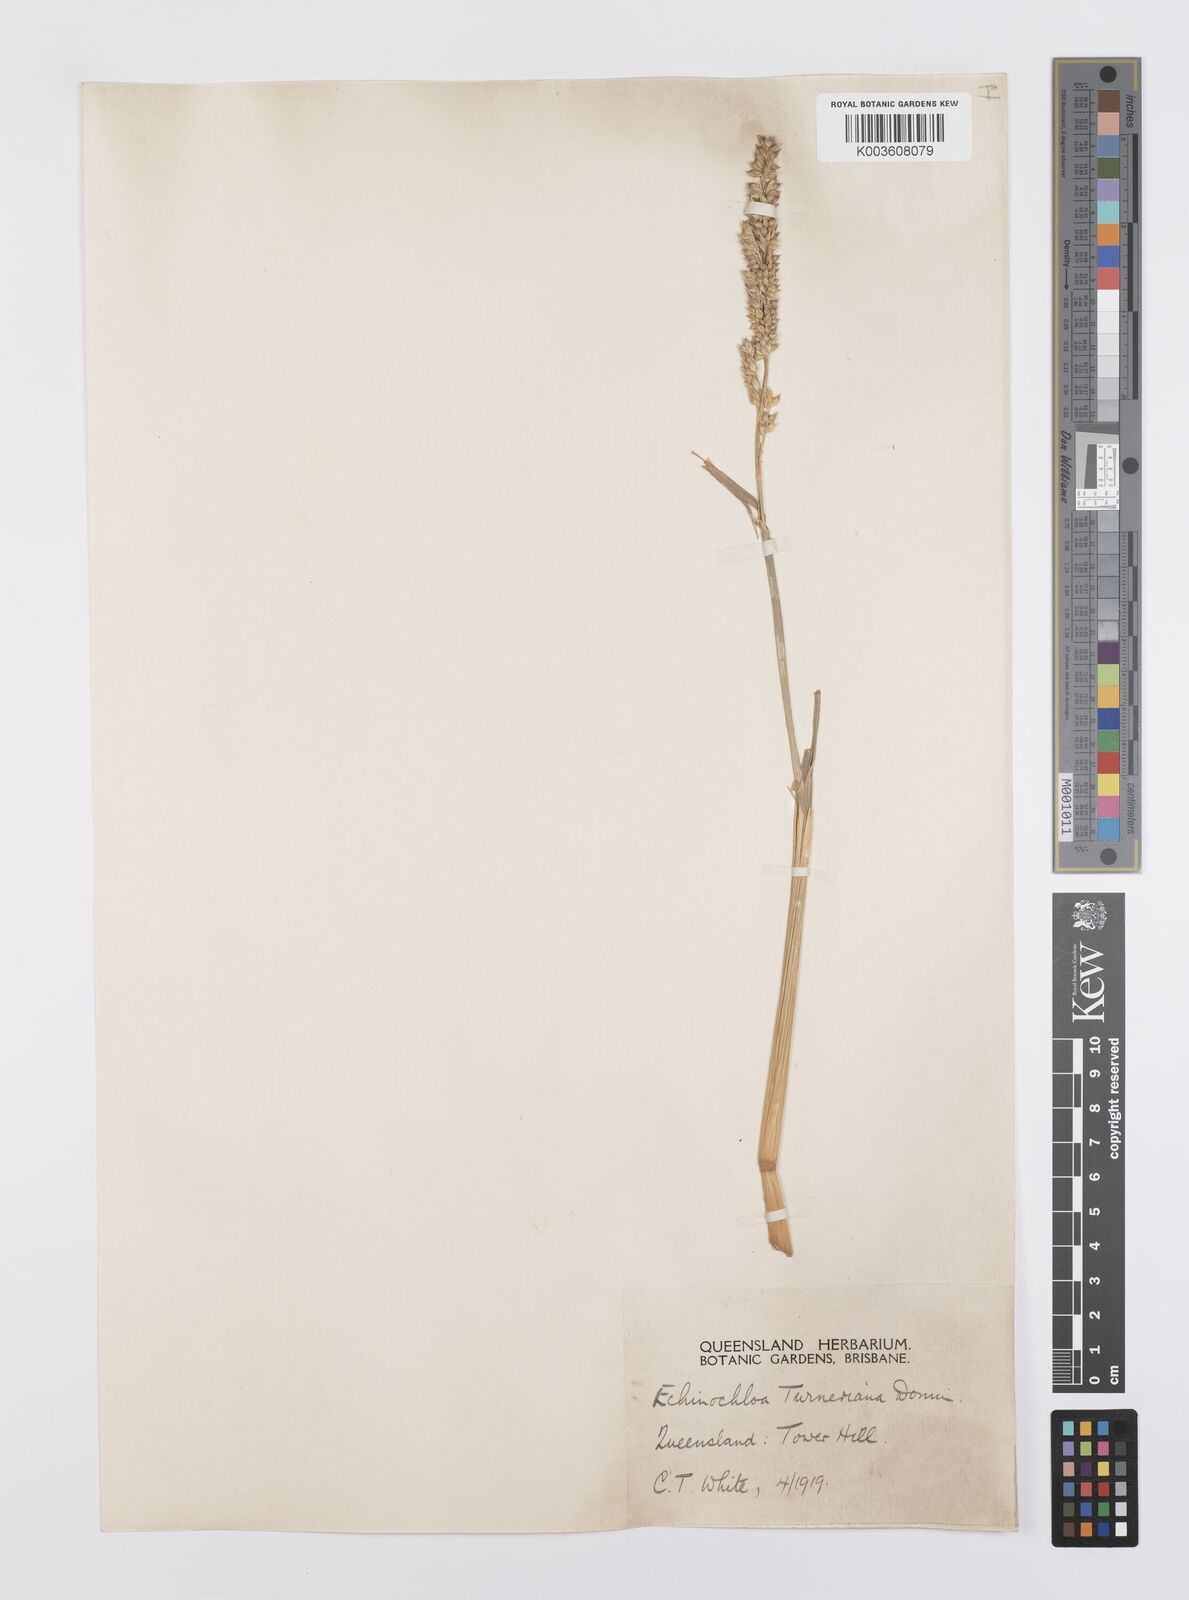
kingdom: Plantae
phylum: Tracheophyta
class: Liliopsida
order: Poales
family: Poaceae
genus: Echinochloa
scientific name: Echinochloa turneriana
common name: Channel millet
